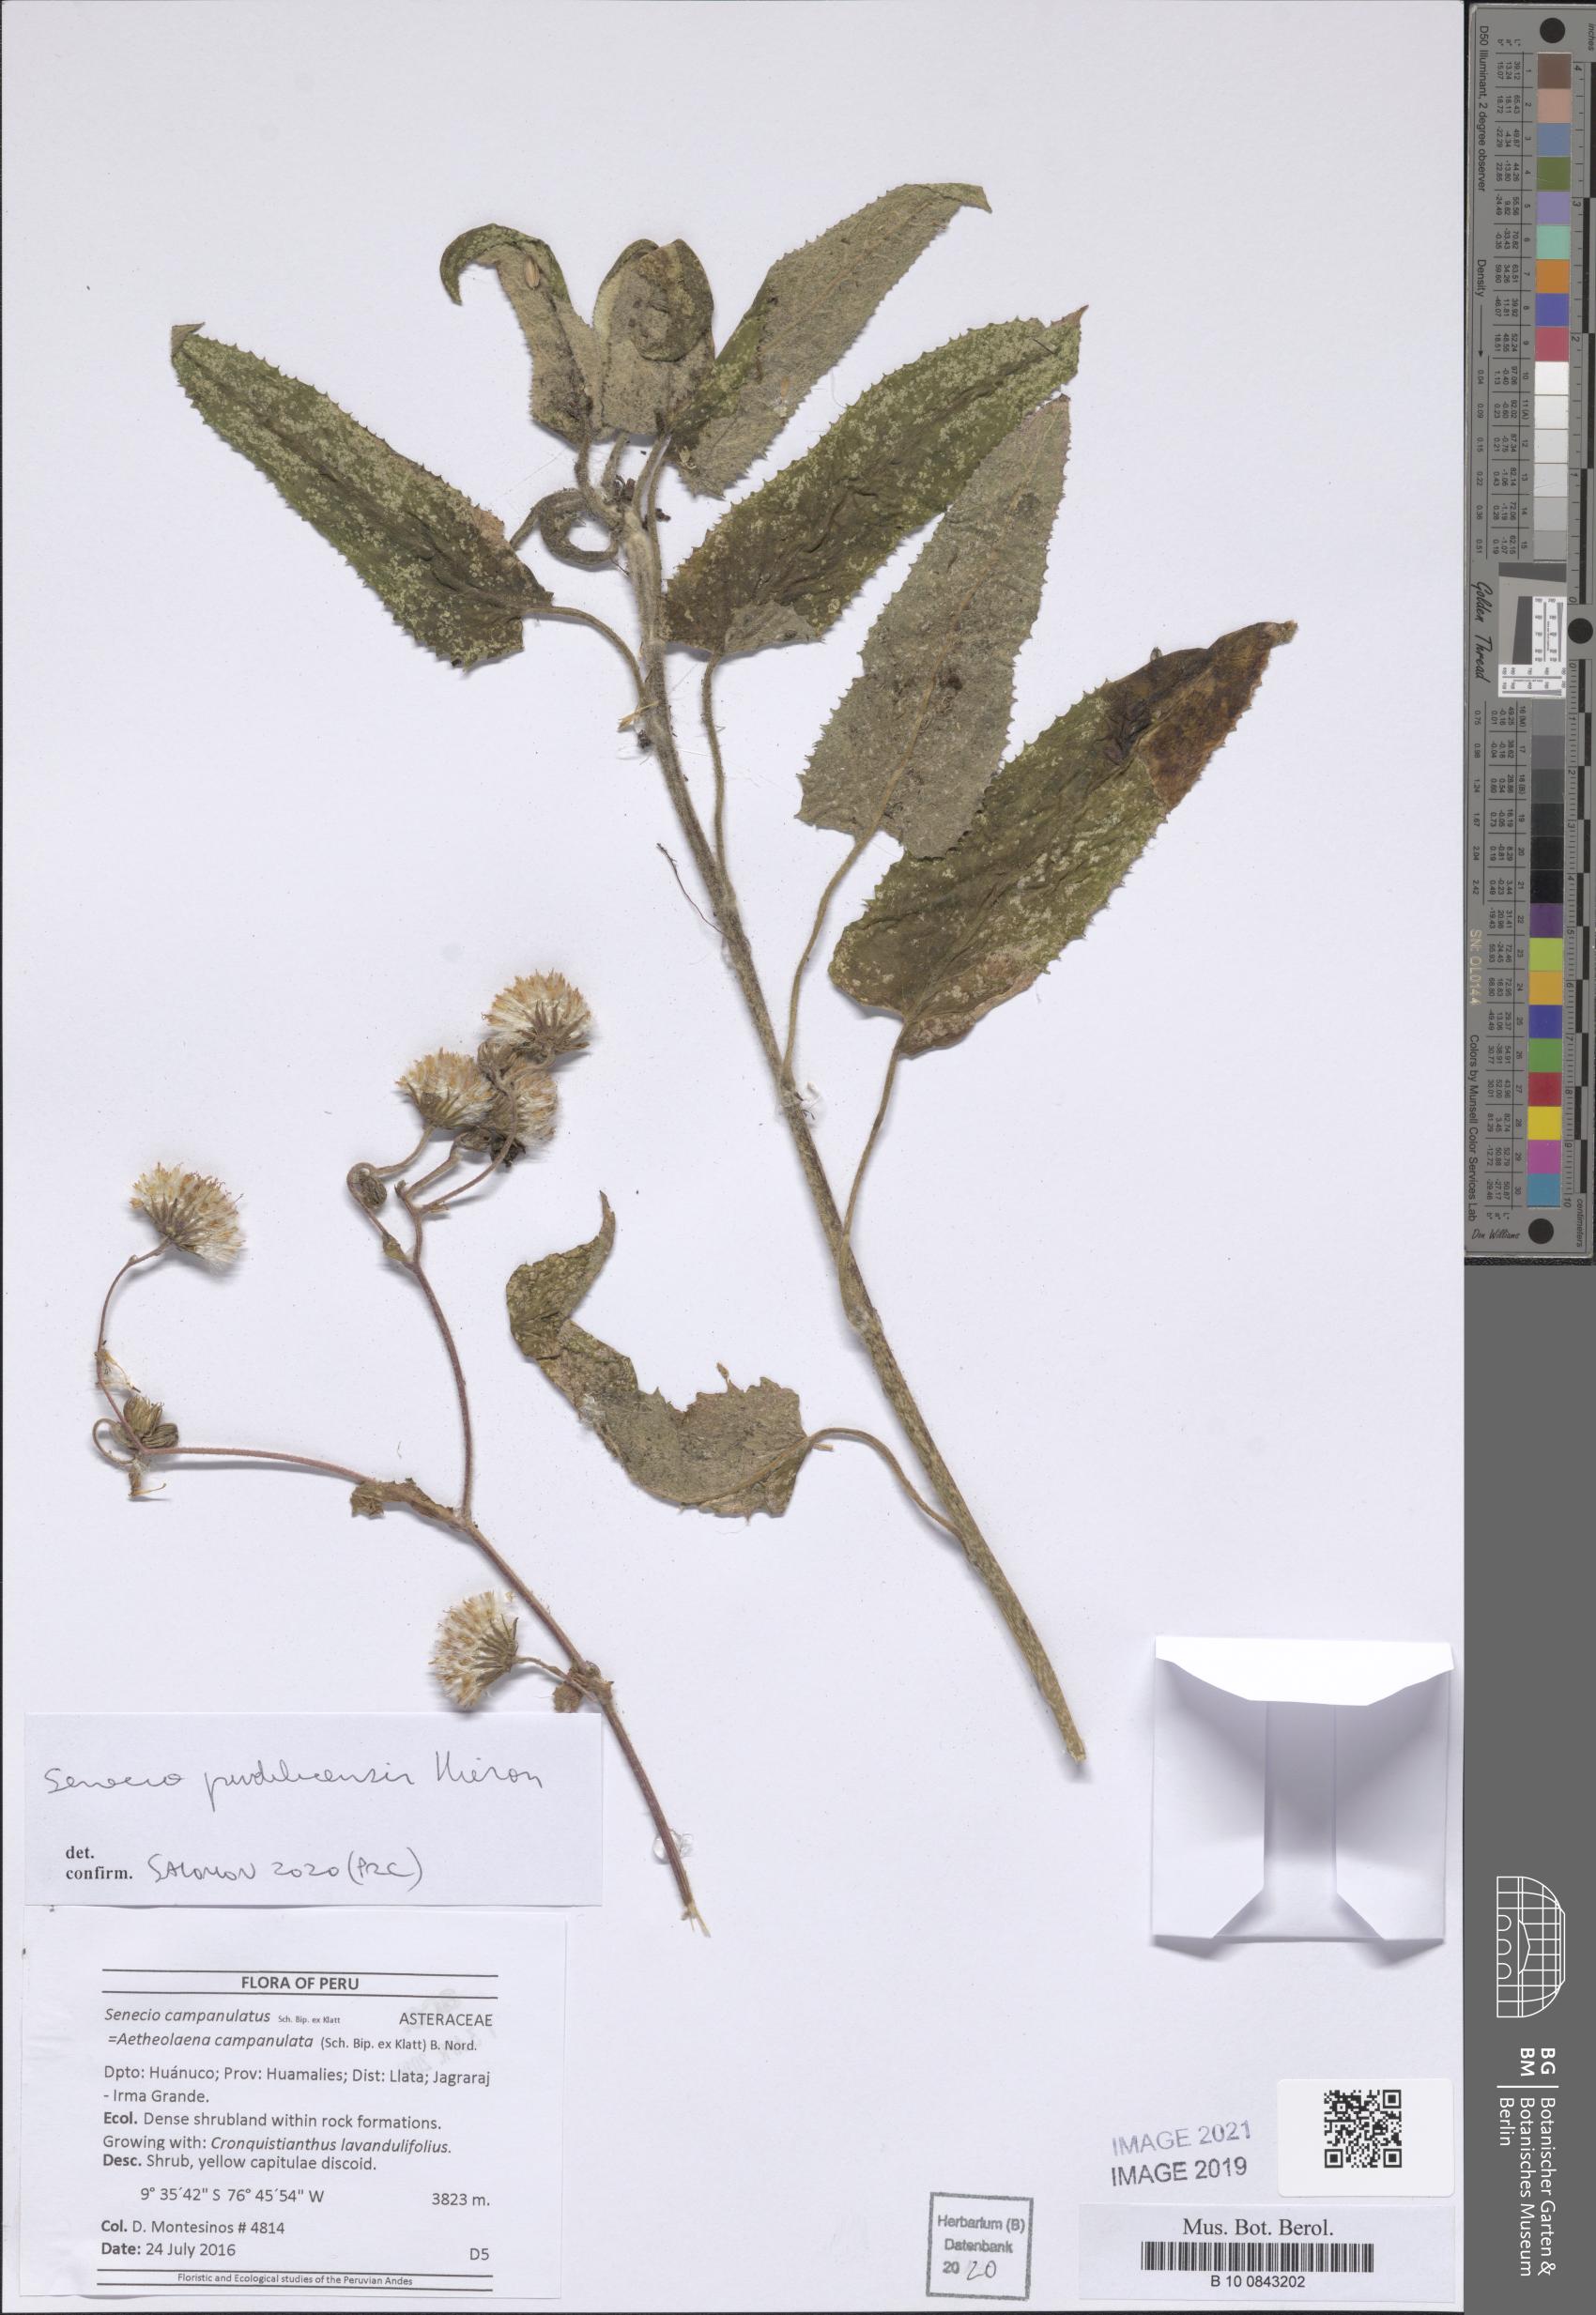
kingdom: Plantae
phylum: Tracheophyta
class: Magnoliopsida
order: Asterales
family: Asteraceae
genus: Aetheolaena
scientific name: Aetheolaena heterophylla
